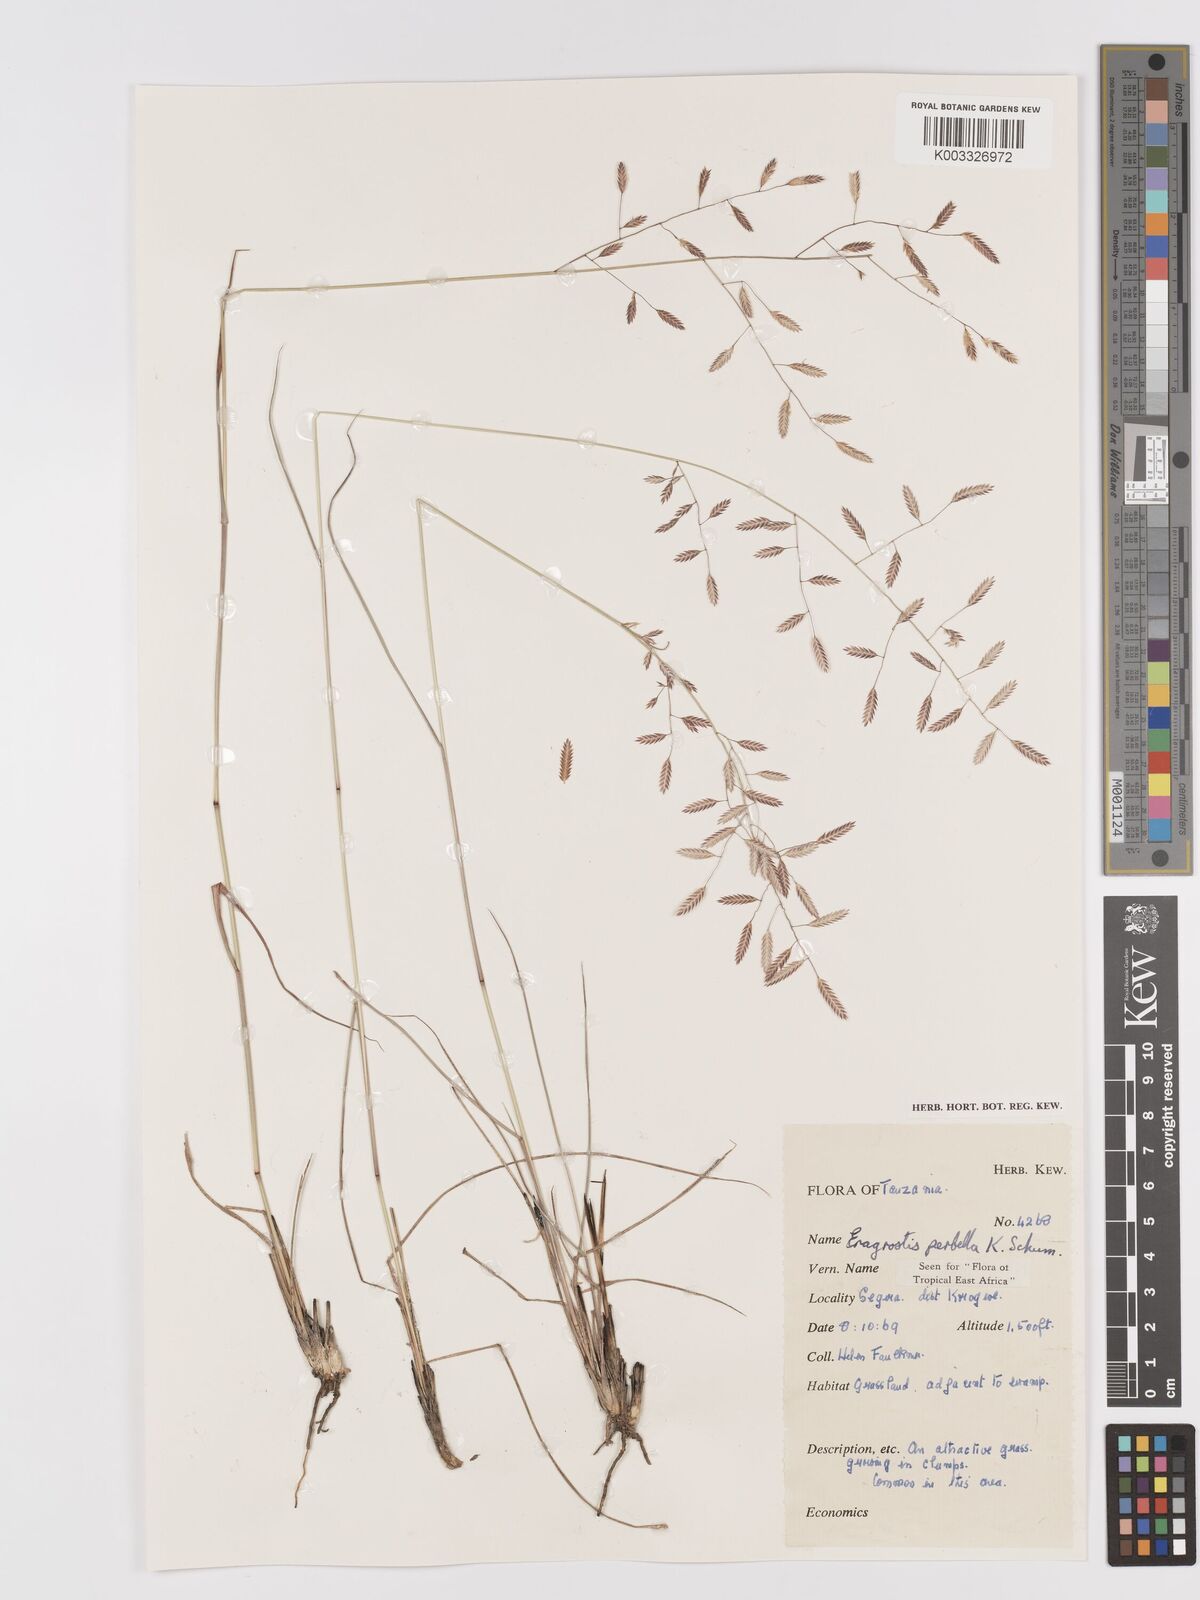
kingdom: Plantae
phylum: Tracheophyta
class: Liliopsida
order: Poales
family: Poaceae
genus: Eragrostis
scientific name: Eragrostis perbella
